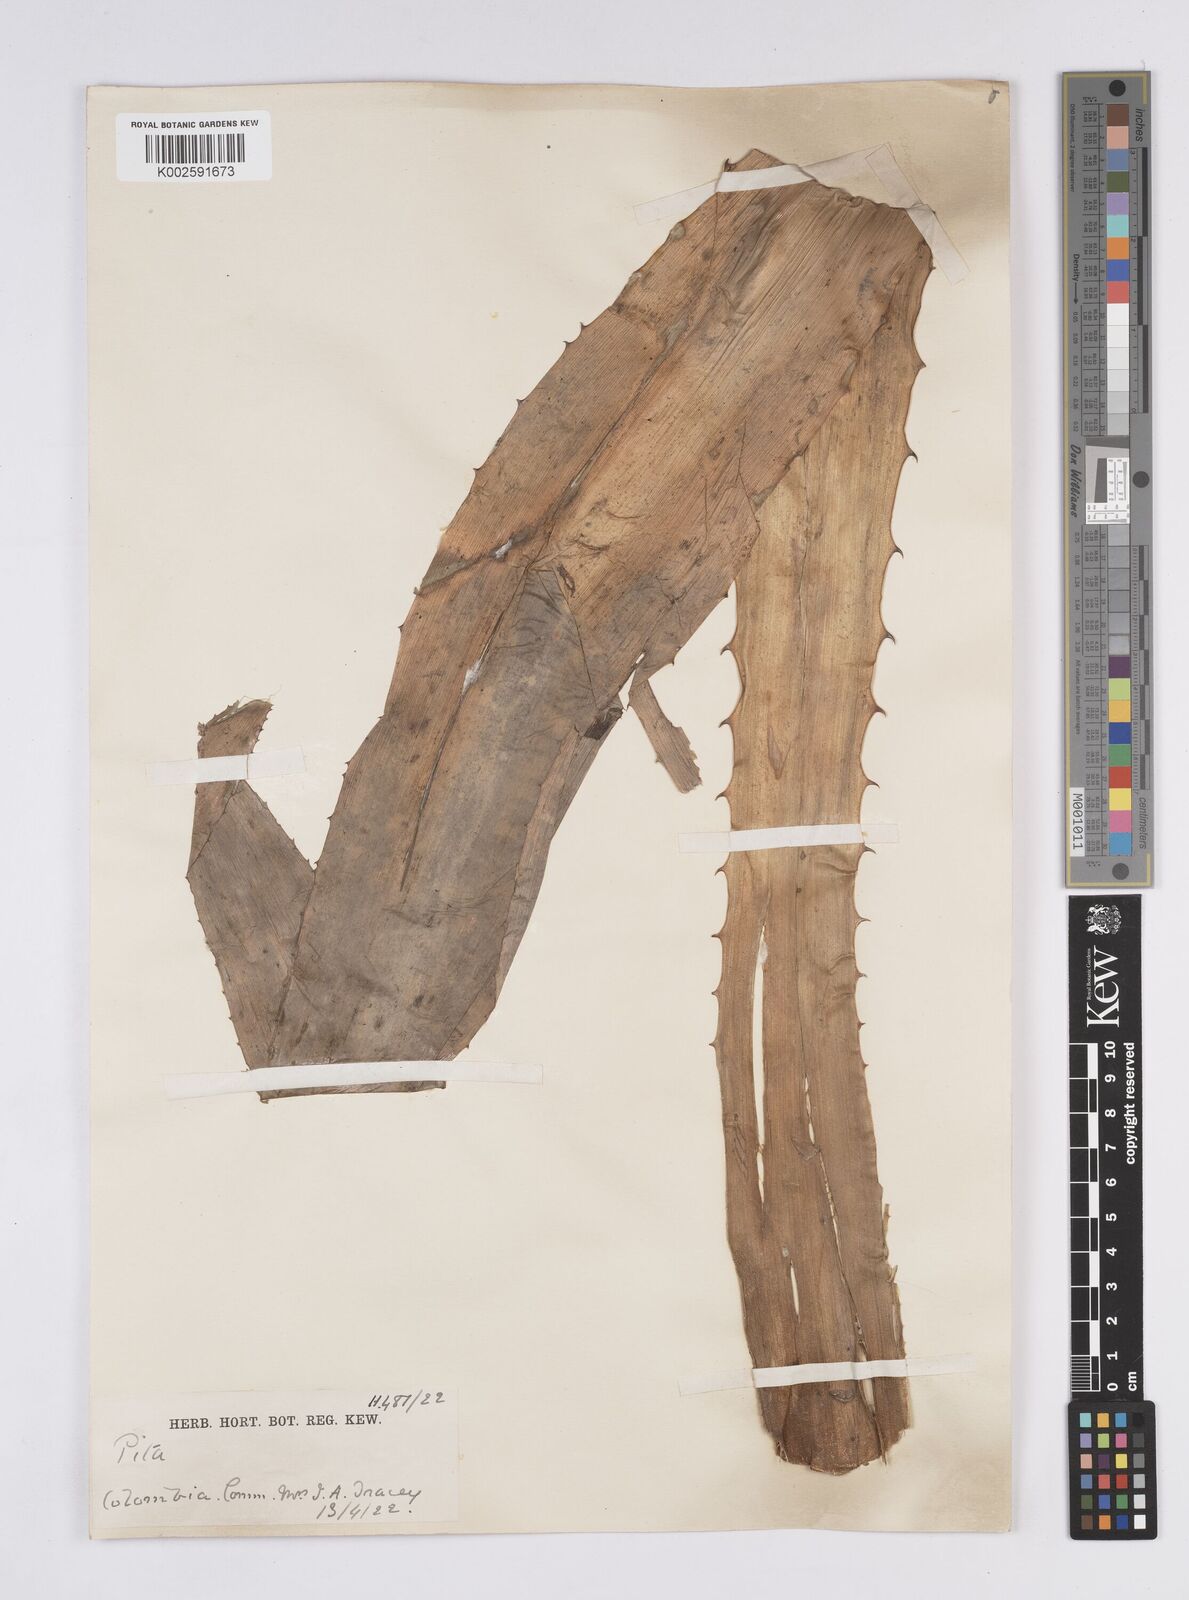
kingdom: Plantae
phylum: Tracheophyta
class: Liliopsida
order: Poales
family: Bromeliaceae
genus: Aechmea
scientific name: Aechmea magdalenae
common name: Arghan
